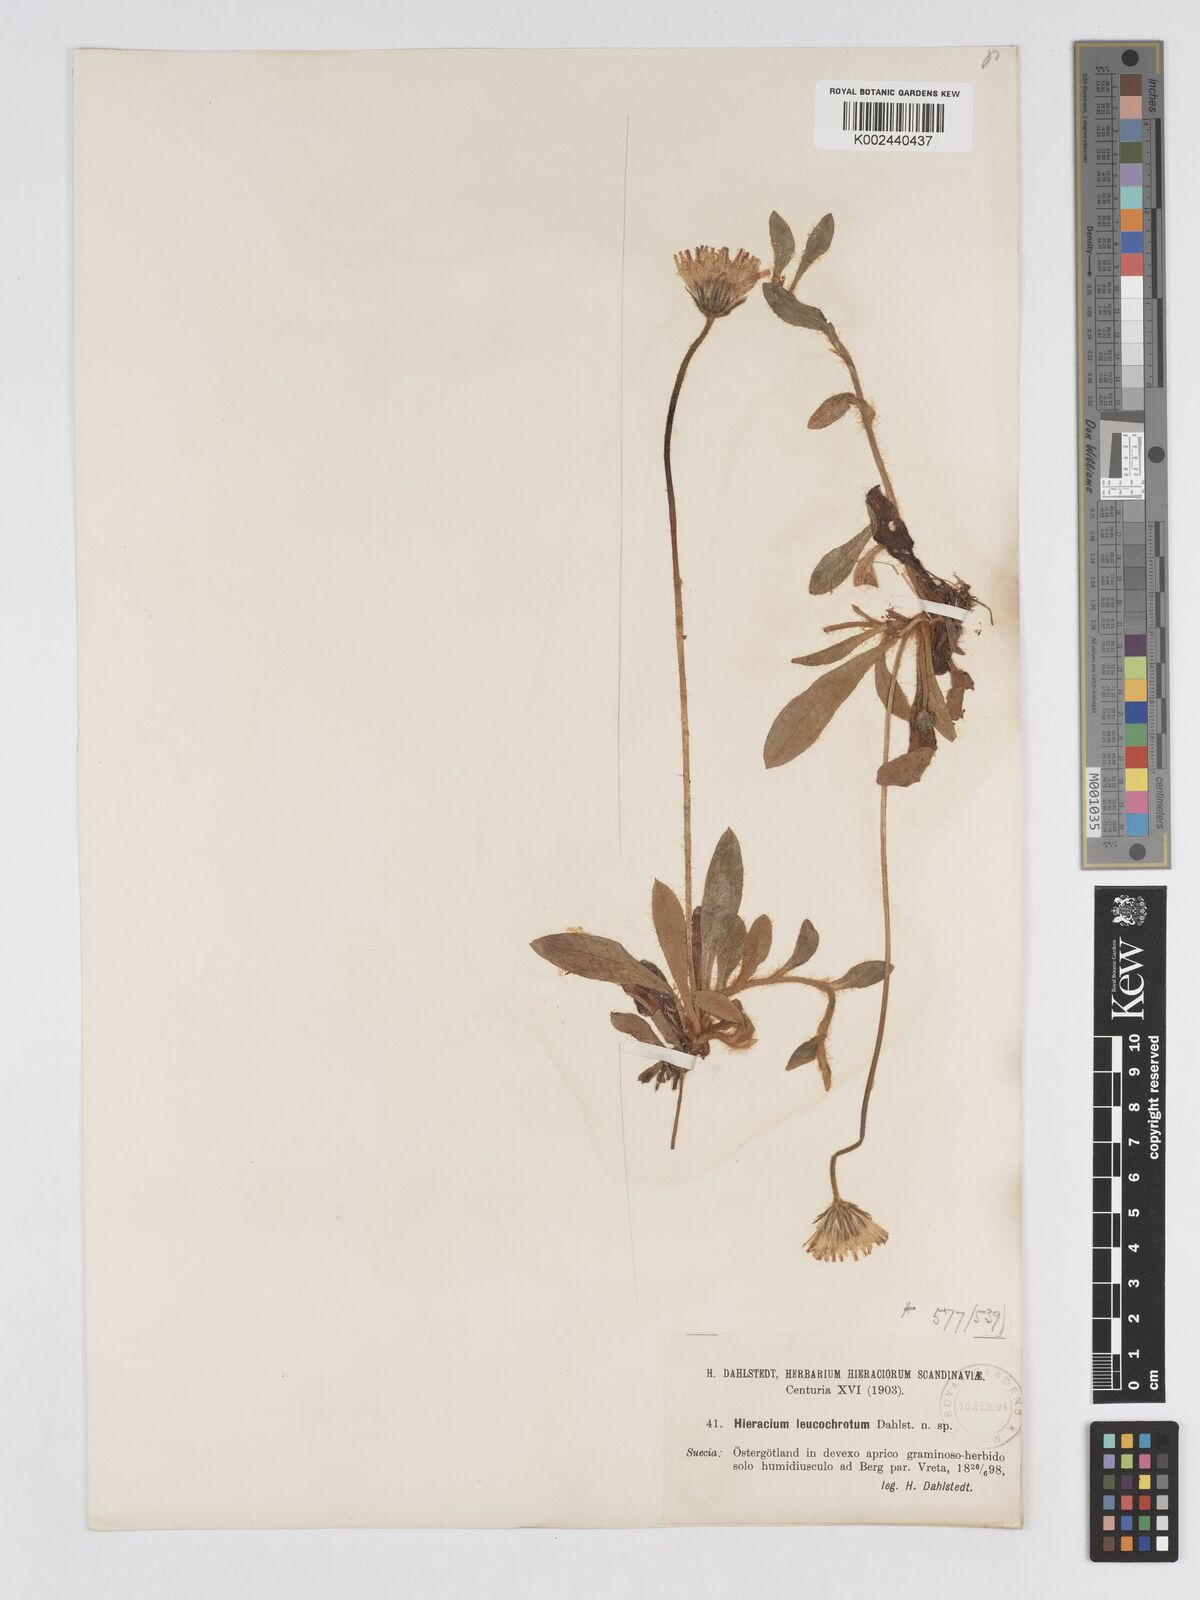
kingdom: Plantae
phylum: Tracheophyta
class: Magnoliopsida
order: Asterales
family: Asteraceae
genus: Pilosella
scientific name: Pilosella officinarum
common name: Mouse-ear hawkweed
